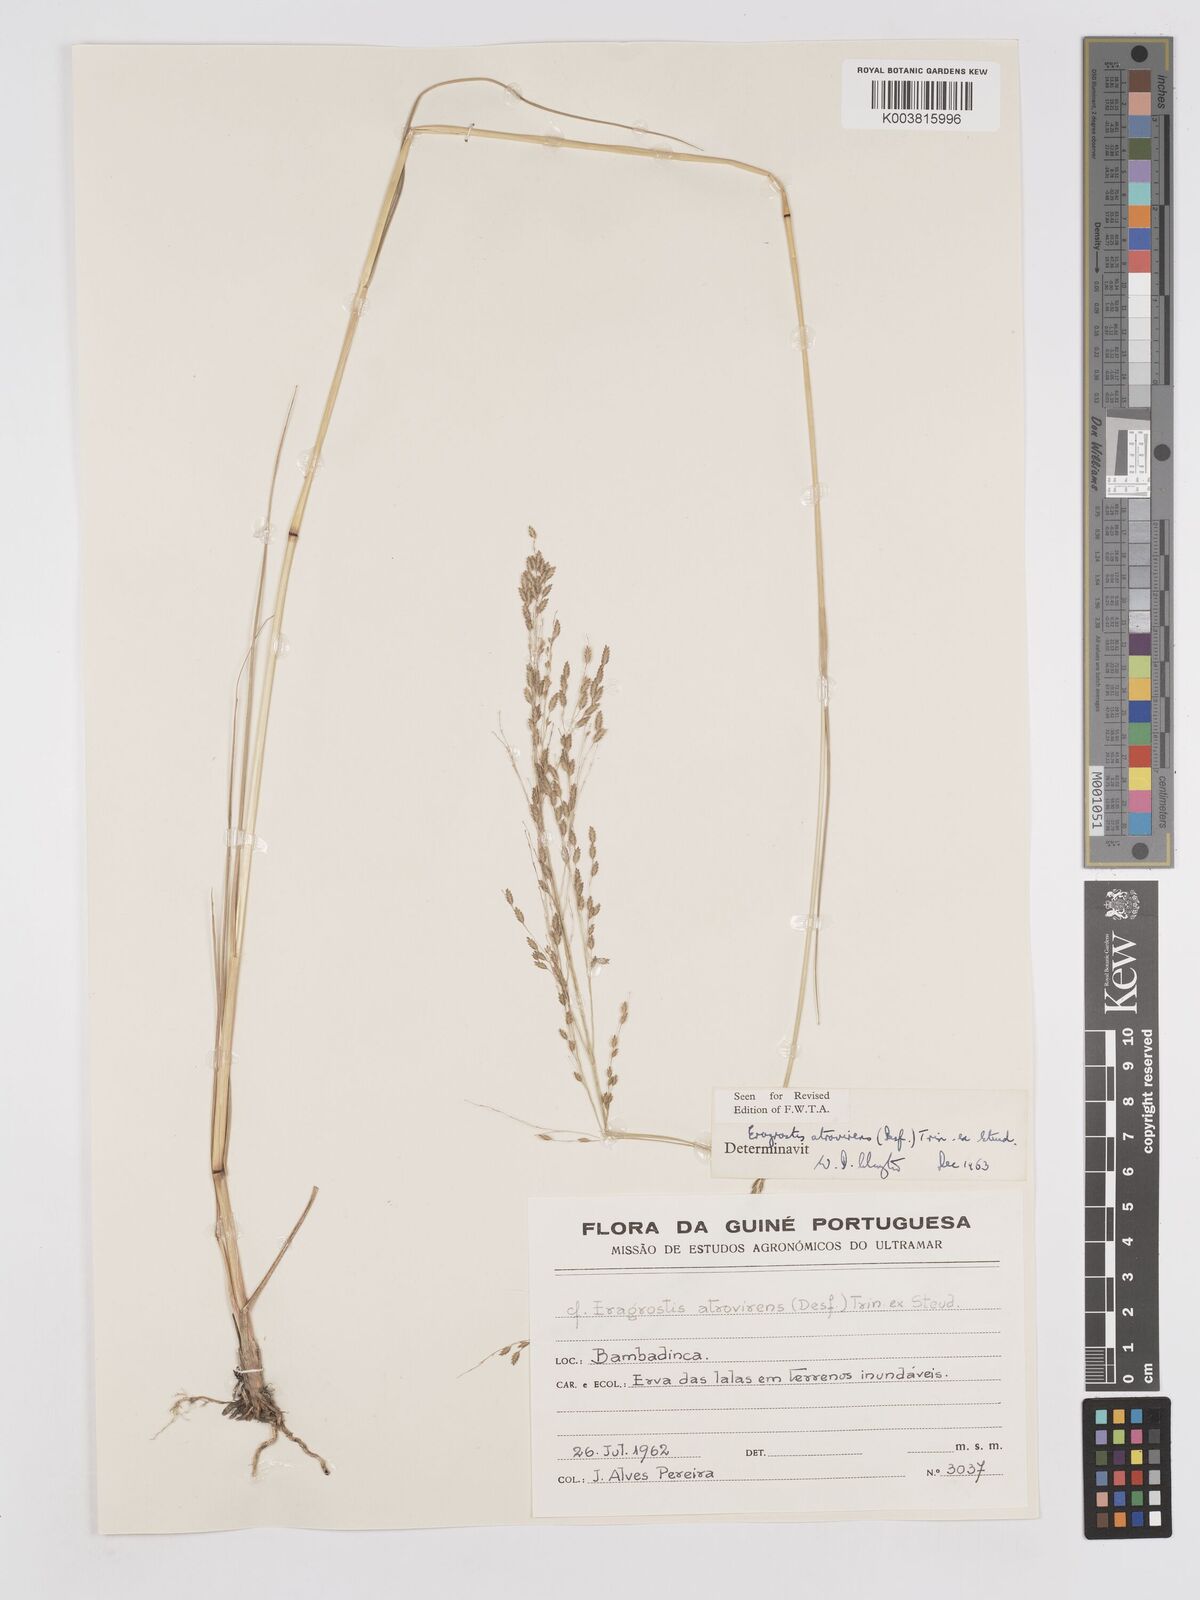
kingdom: Plantae
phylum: Tracheophyta
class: Liliopsida
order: Poales
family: Poaceae
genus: Eragrostis
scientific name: Eragrostis atrovirens
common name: Thalia lovegrass
